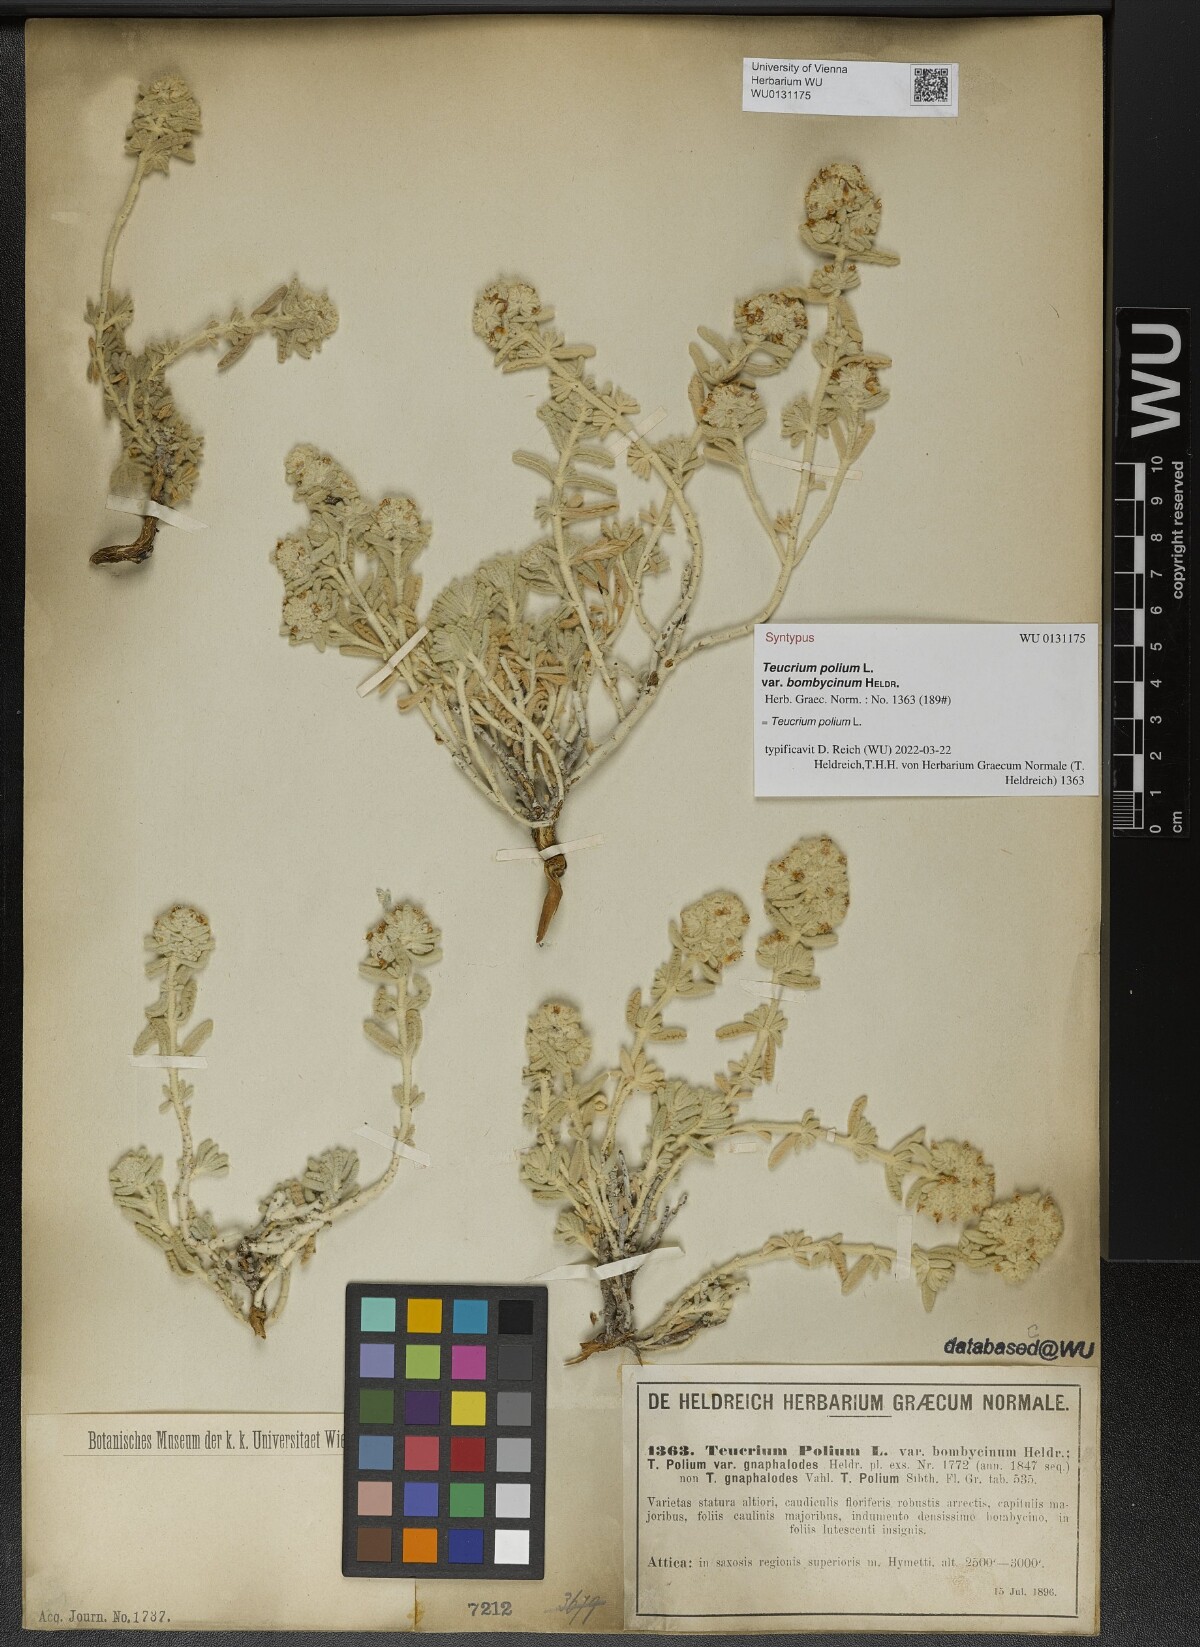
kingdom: Plantae
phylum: Tracheophyta
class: Magnoliopsida
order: Lamiales
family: Lamiaceae
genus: Teucrium
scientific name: Teucrium dunense
